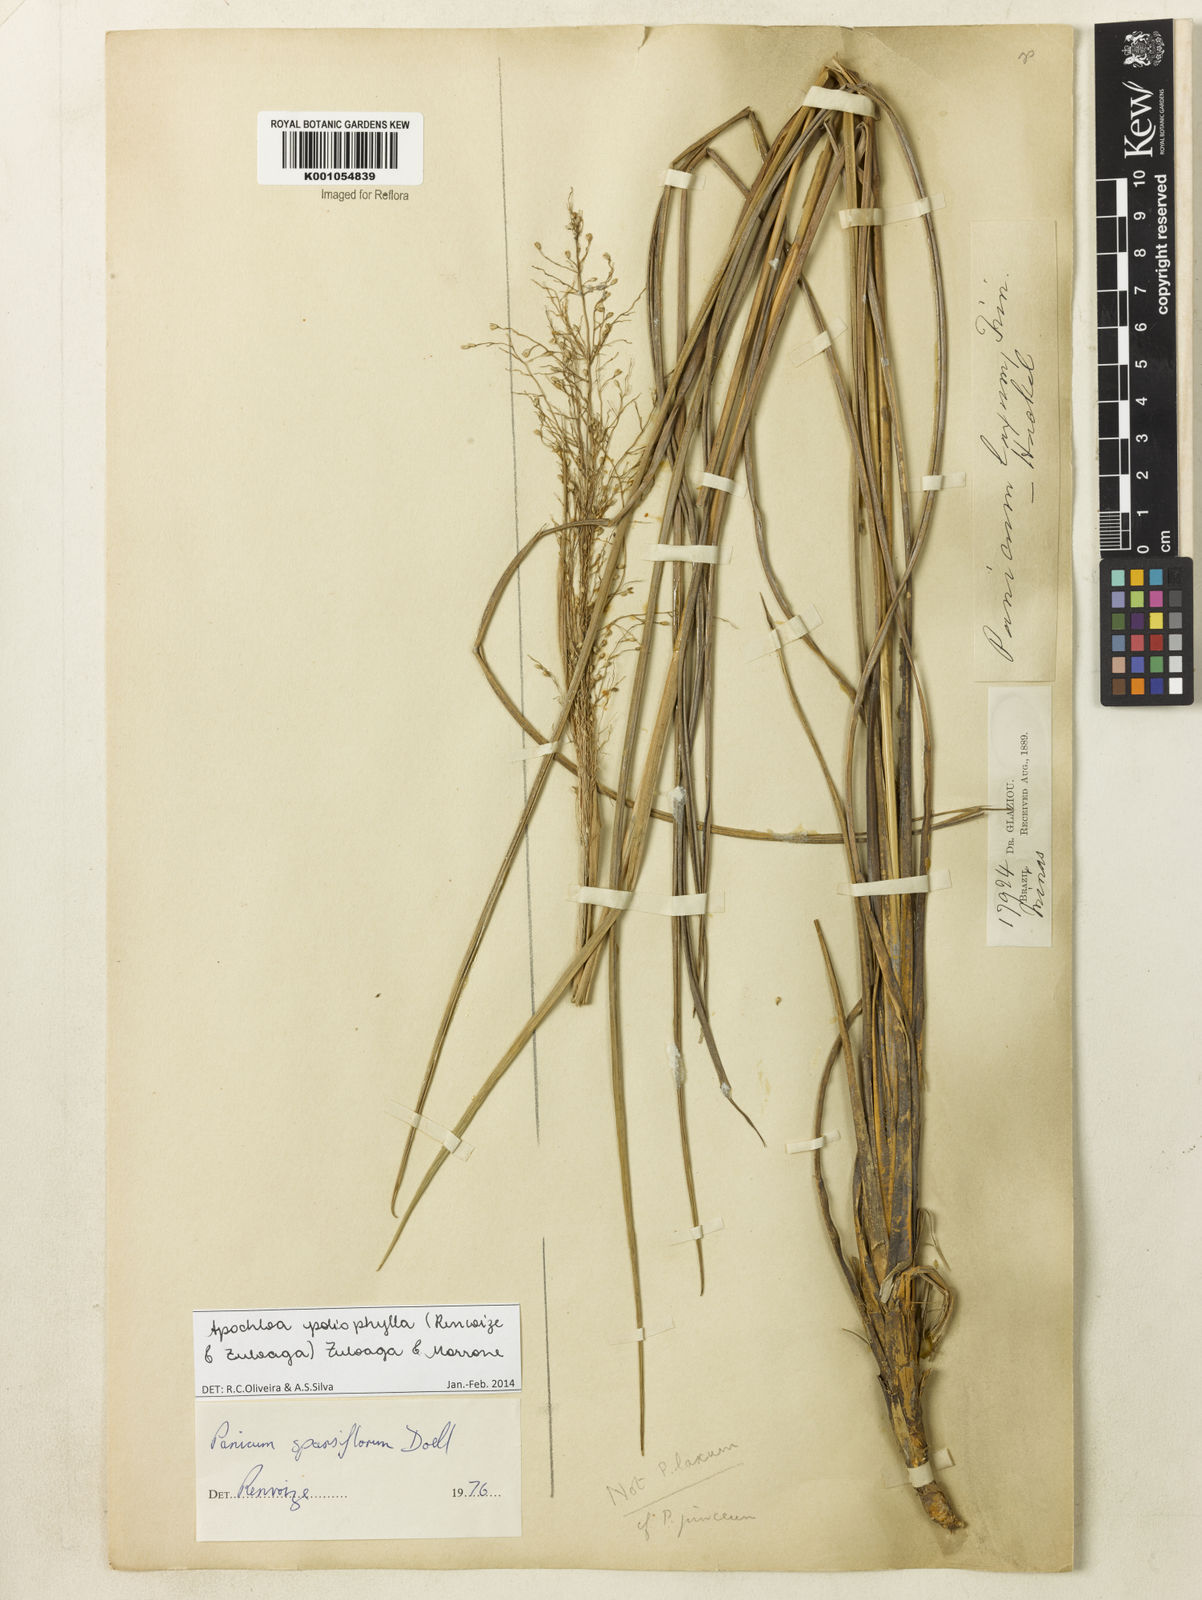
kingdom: Plantae
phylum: Tracheophyta
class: Liliopsida
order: Poales
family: Poaceae
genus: Apochloa
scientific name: Apochloa poliophylla
